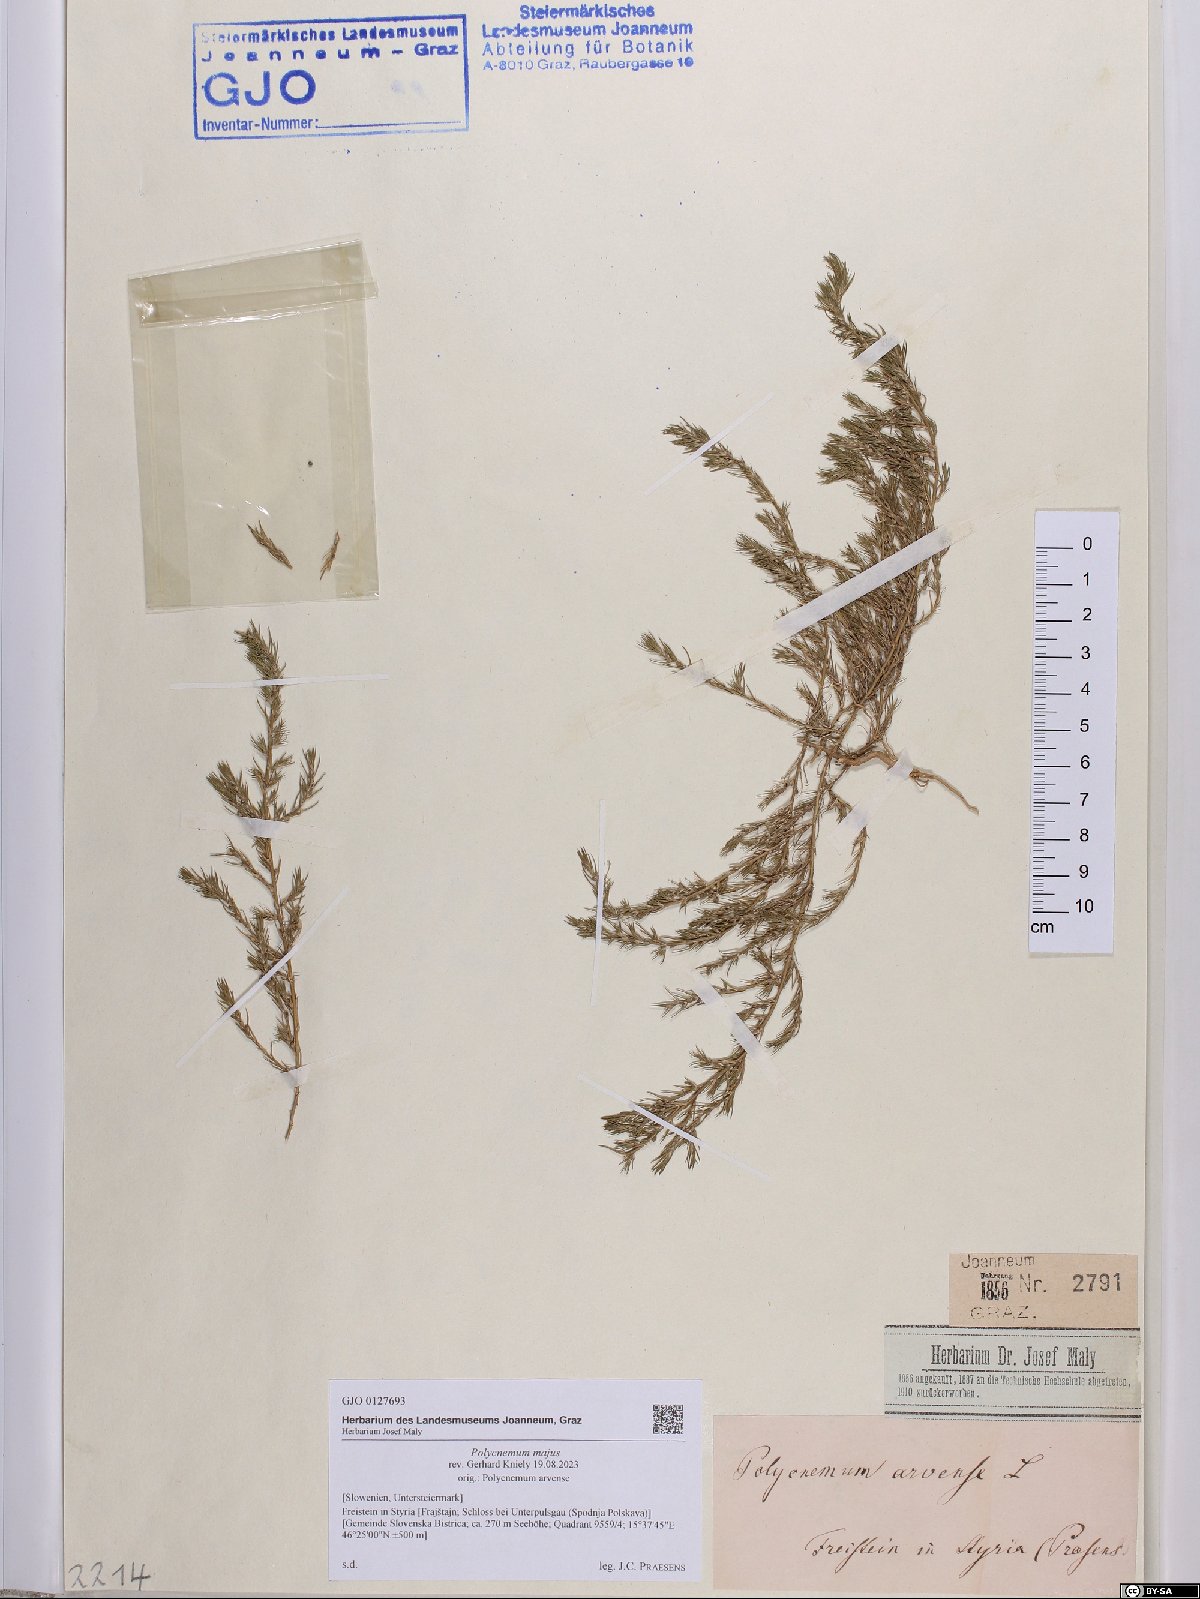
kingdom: Plantae
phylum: Tracheophyta
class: Magnoliopsida
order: Caryophyllales
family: Amaranthaceae
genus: Polycnemum
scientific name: Polycnemum majus
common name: Giant needleleaf
